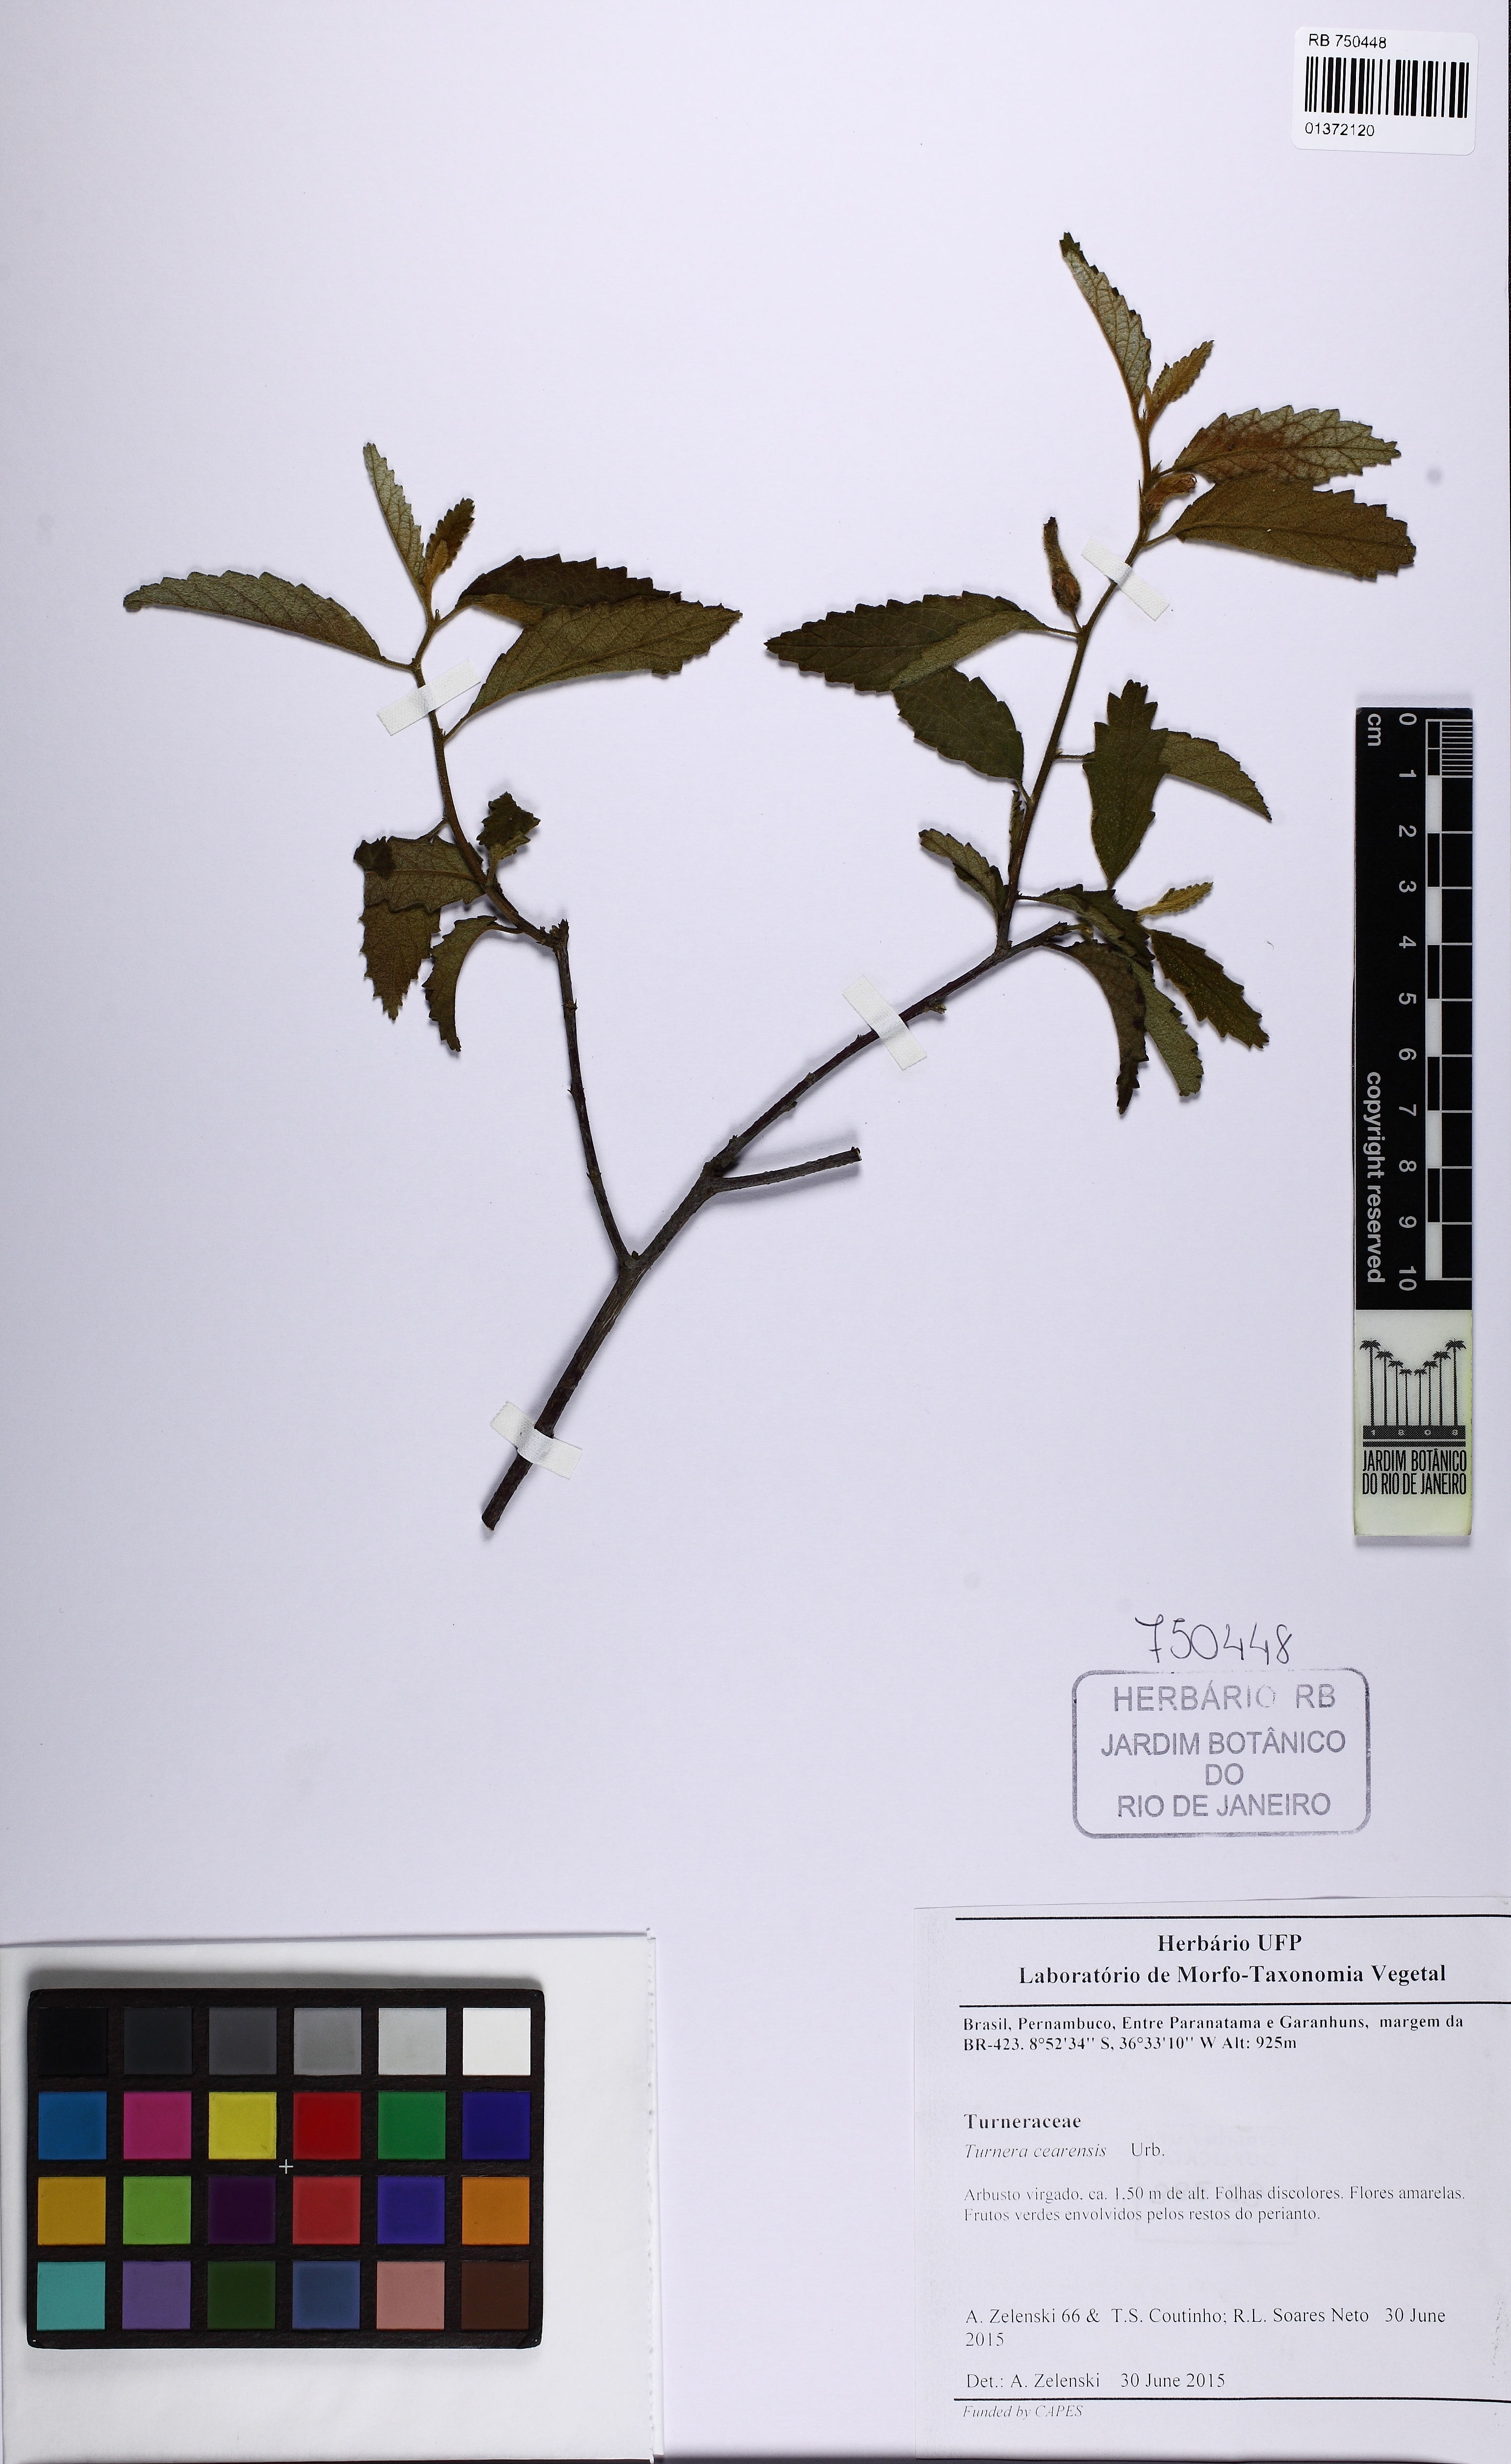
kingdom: Plantae
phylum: Tracheophyta
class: Magnoliopsida
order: Malpighiales
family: Turneraceae
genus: Turnera
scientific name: Turnera cearensis
